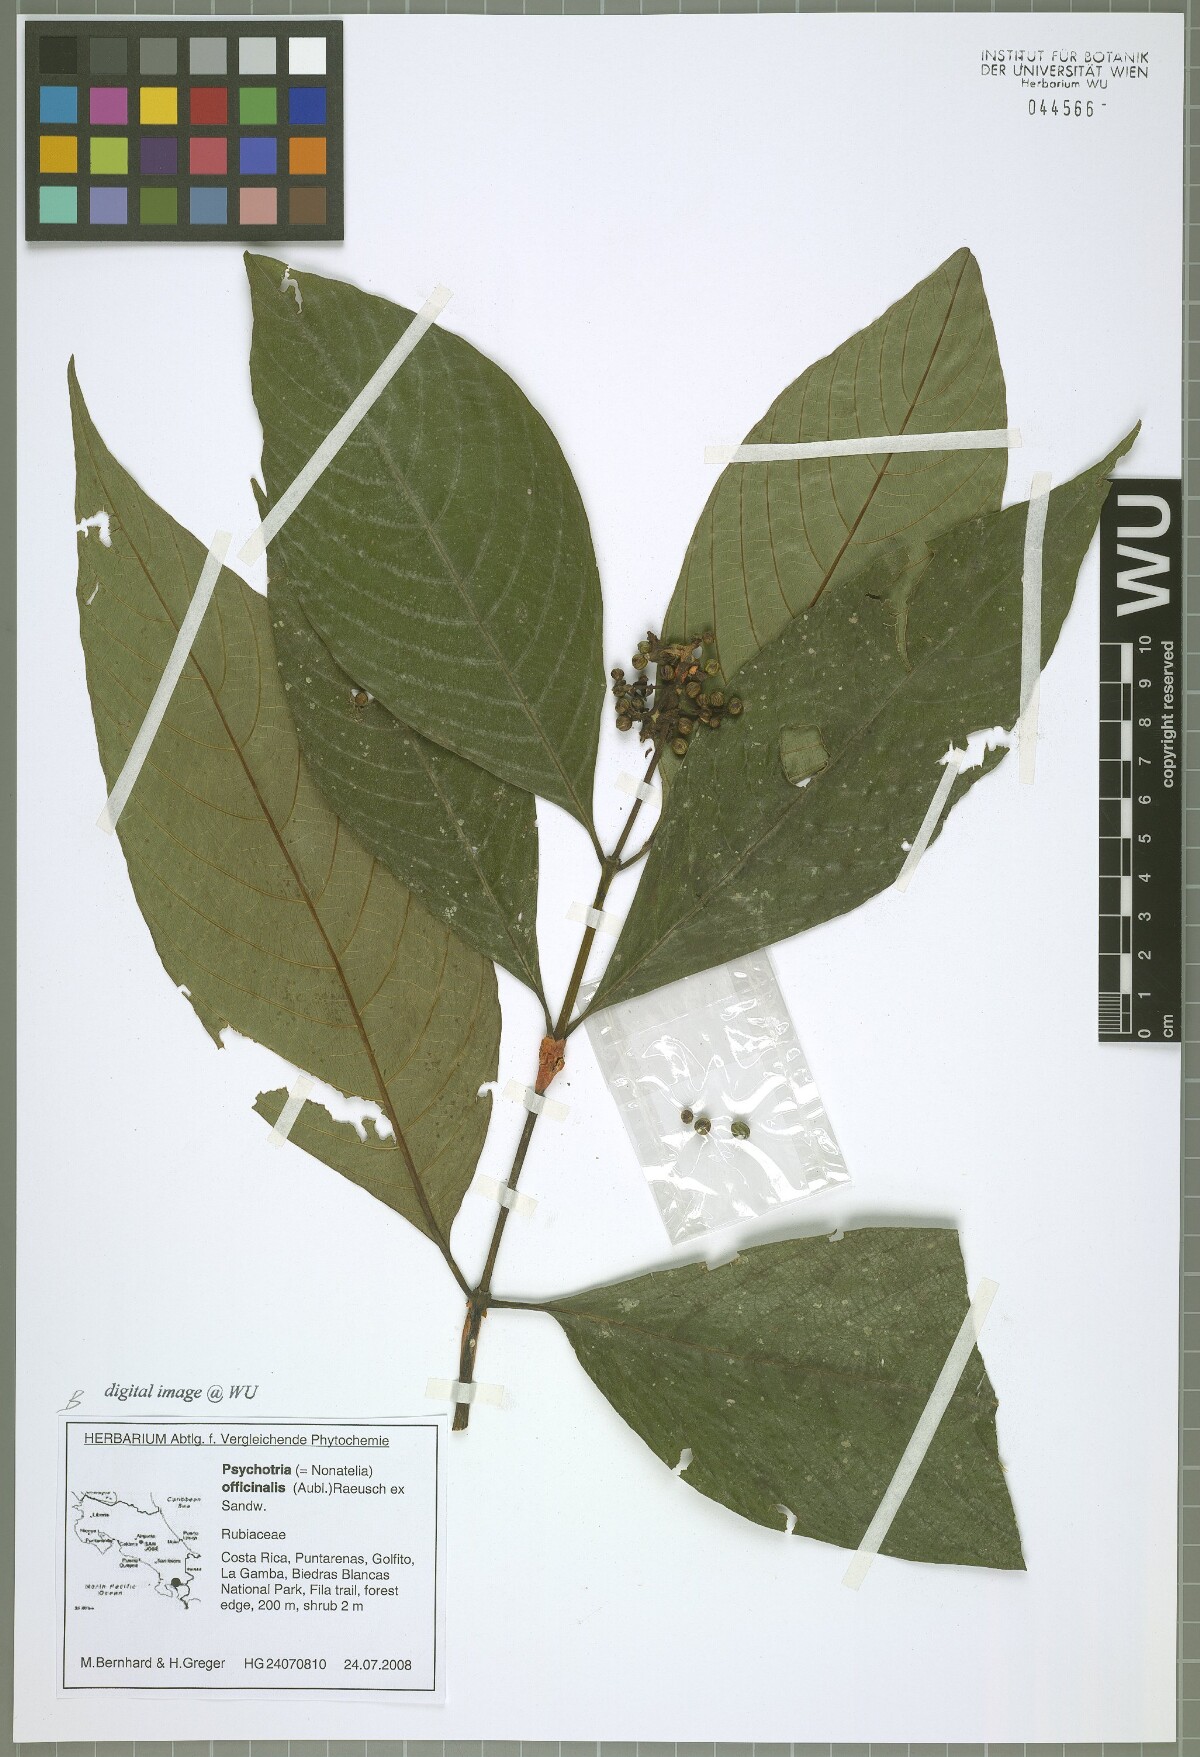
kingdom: Plantae
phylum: Tracheophyta
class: Magnoliopsida
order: Gentianales
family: Rubiaceae
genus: Palicourea
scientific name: Palicourea winkleri
